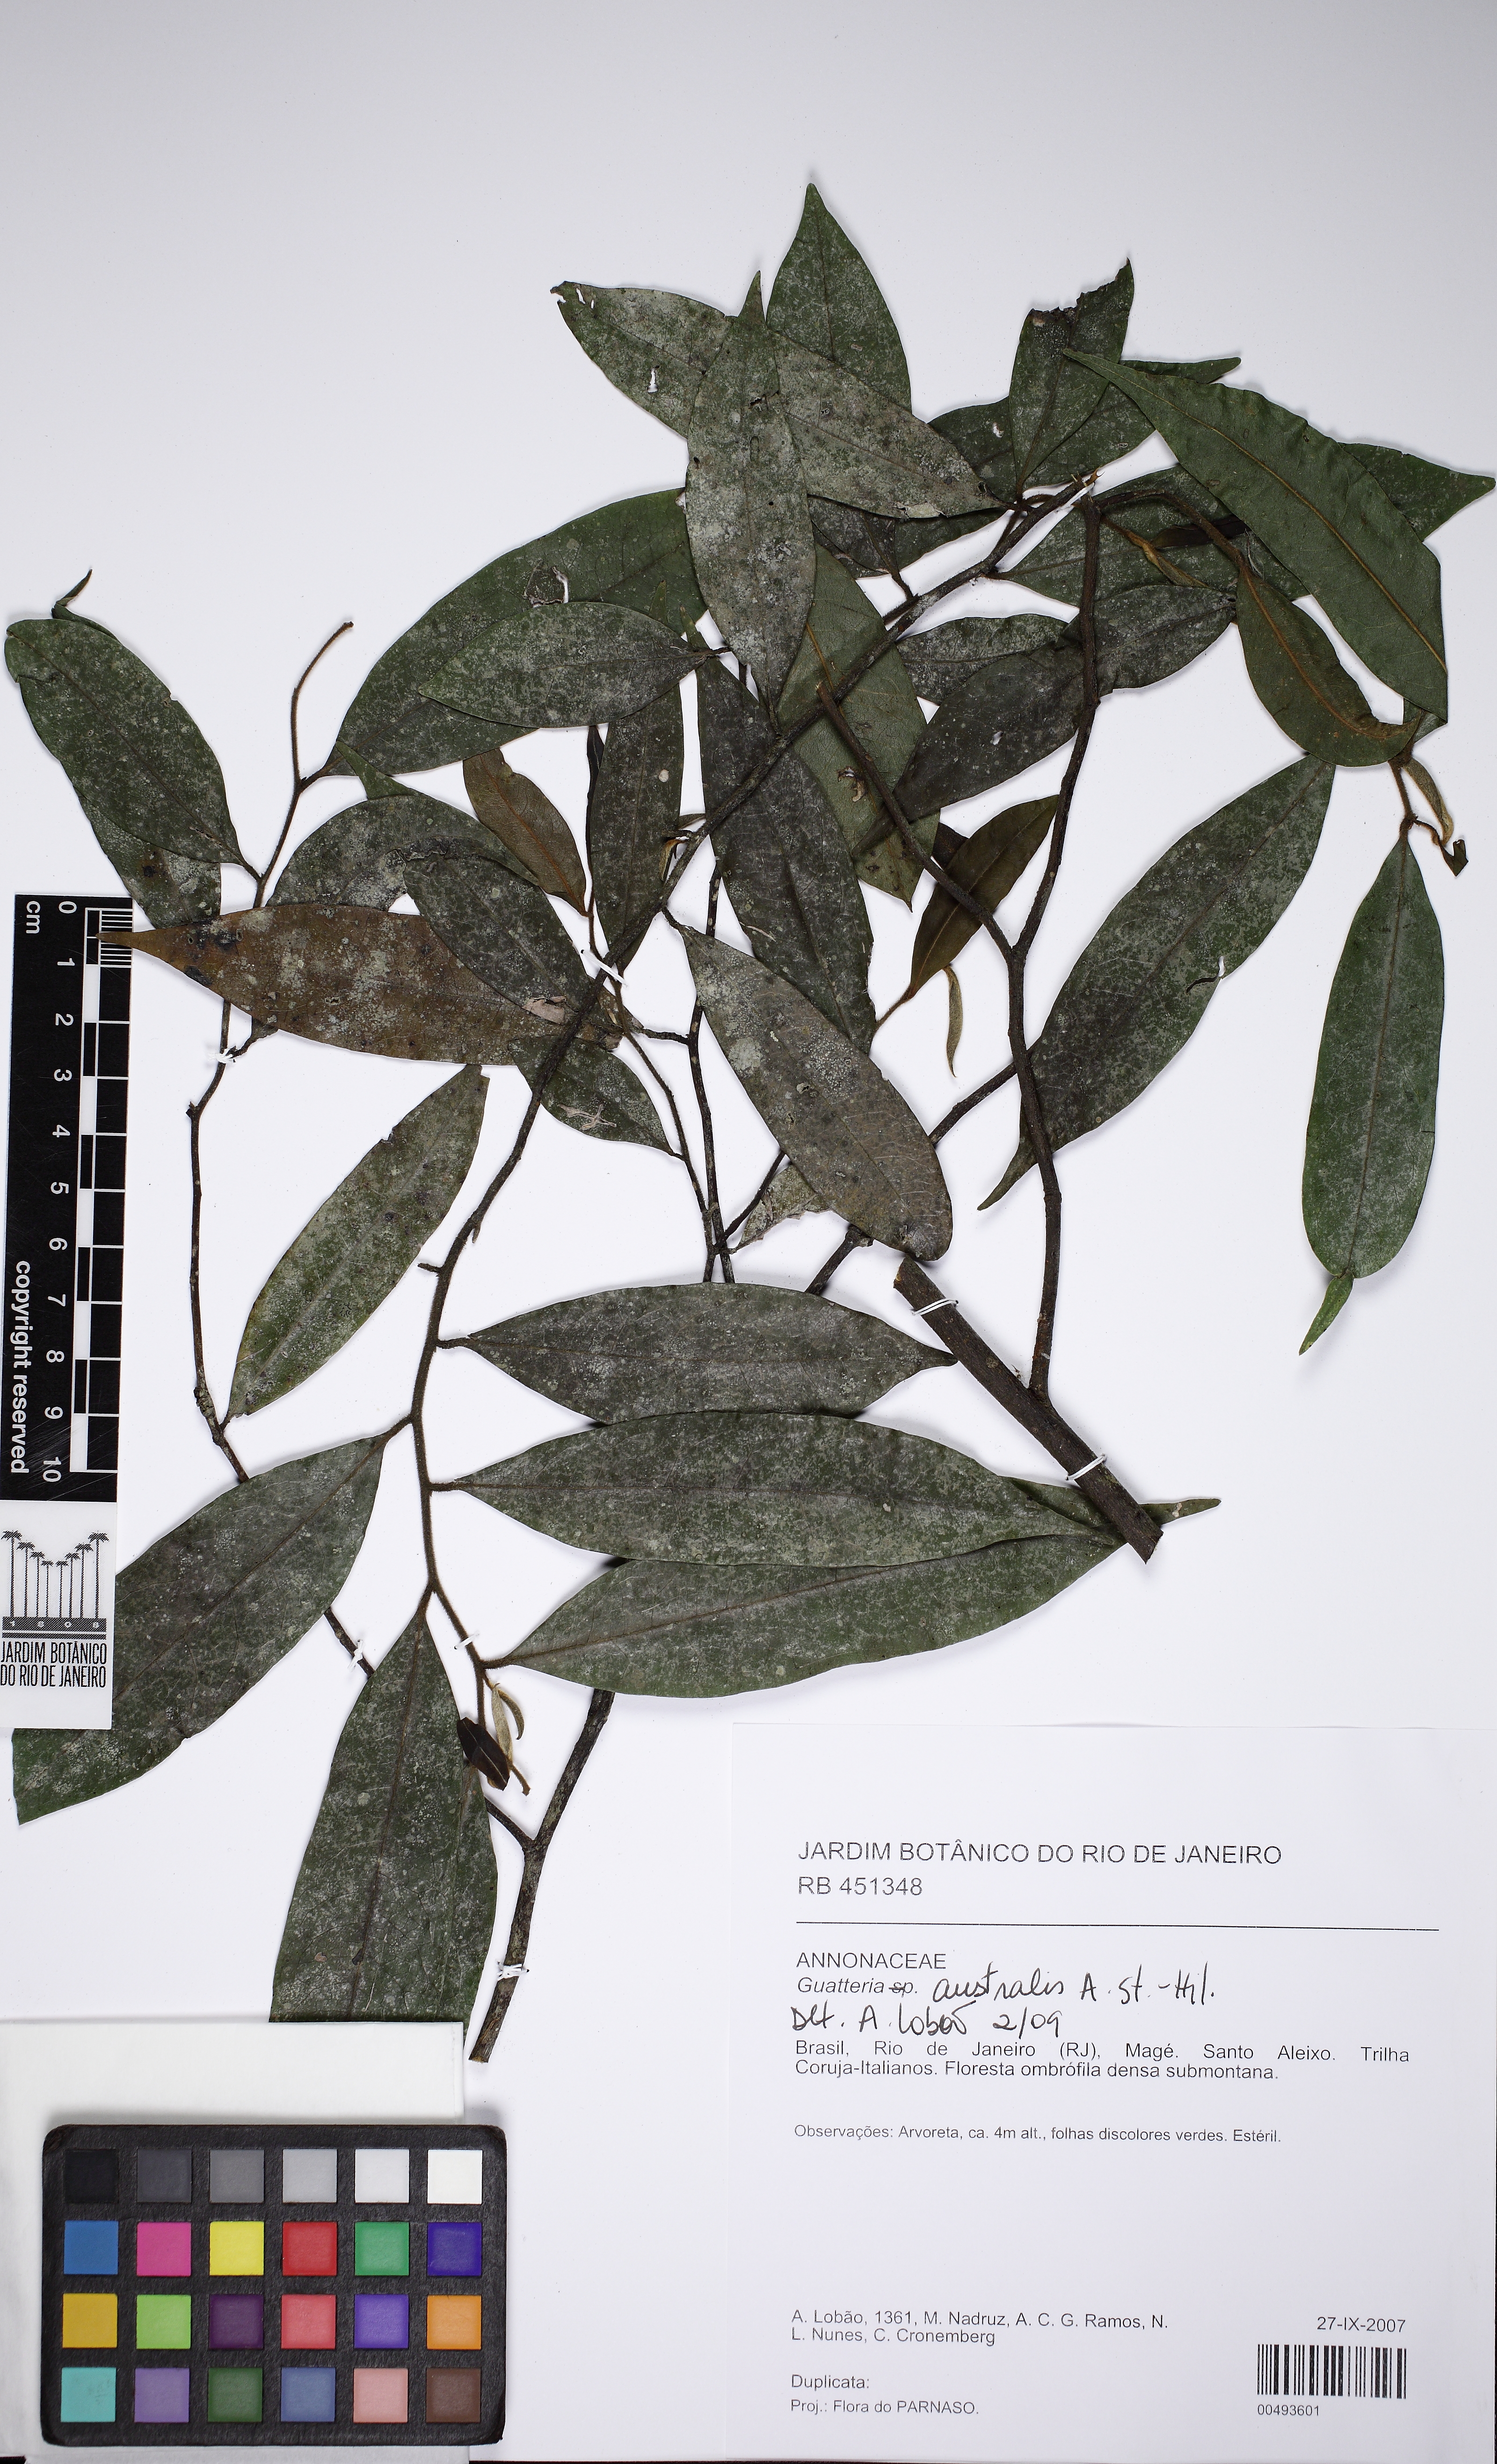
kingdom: Plantae
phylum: Tracheophyta
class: Magnoliopsida
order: Magnoliales
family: Annonaceae
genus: Guatteria
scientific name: Guatteria australis
